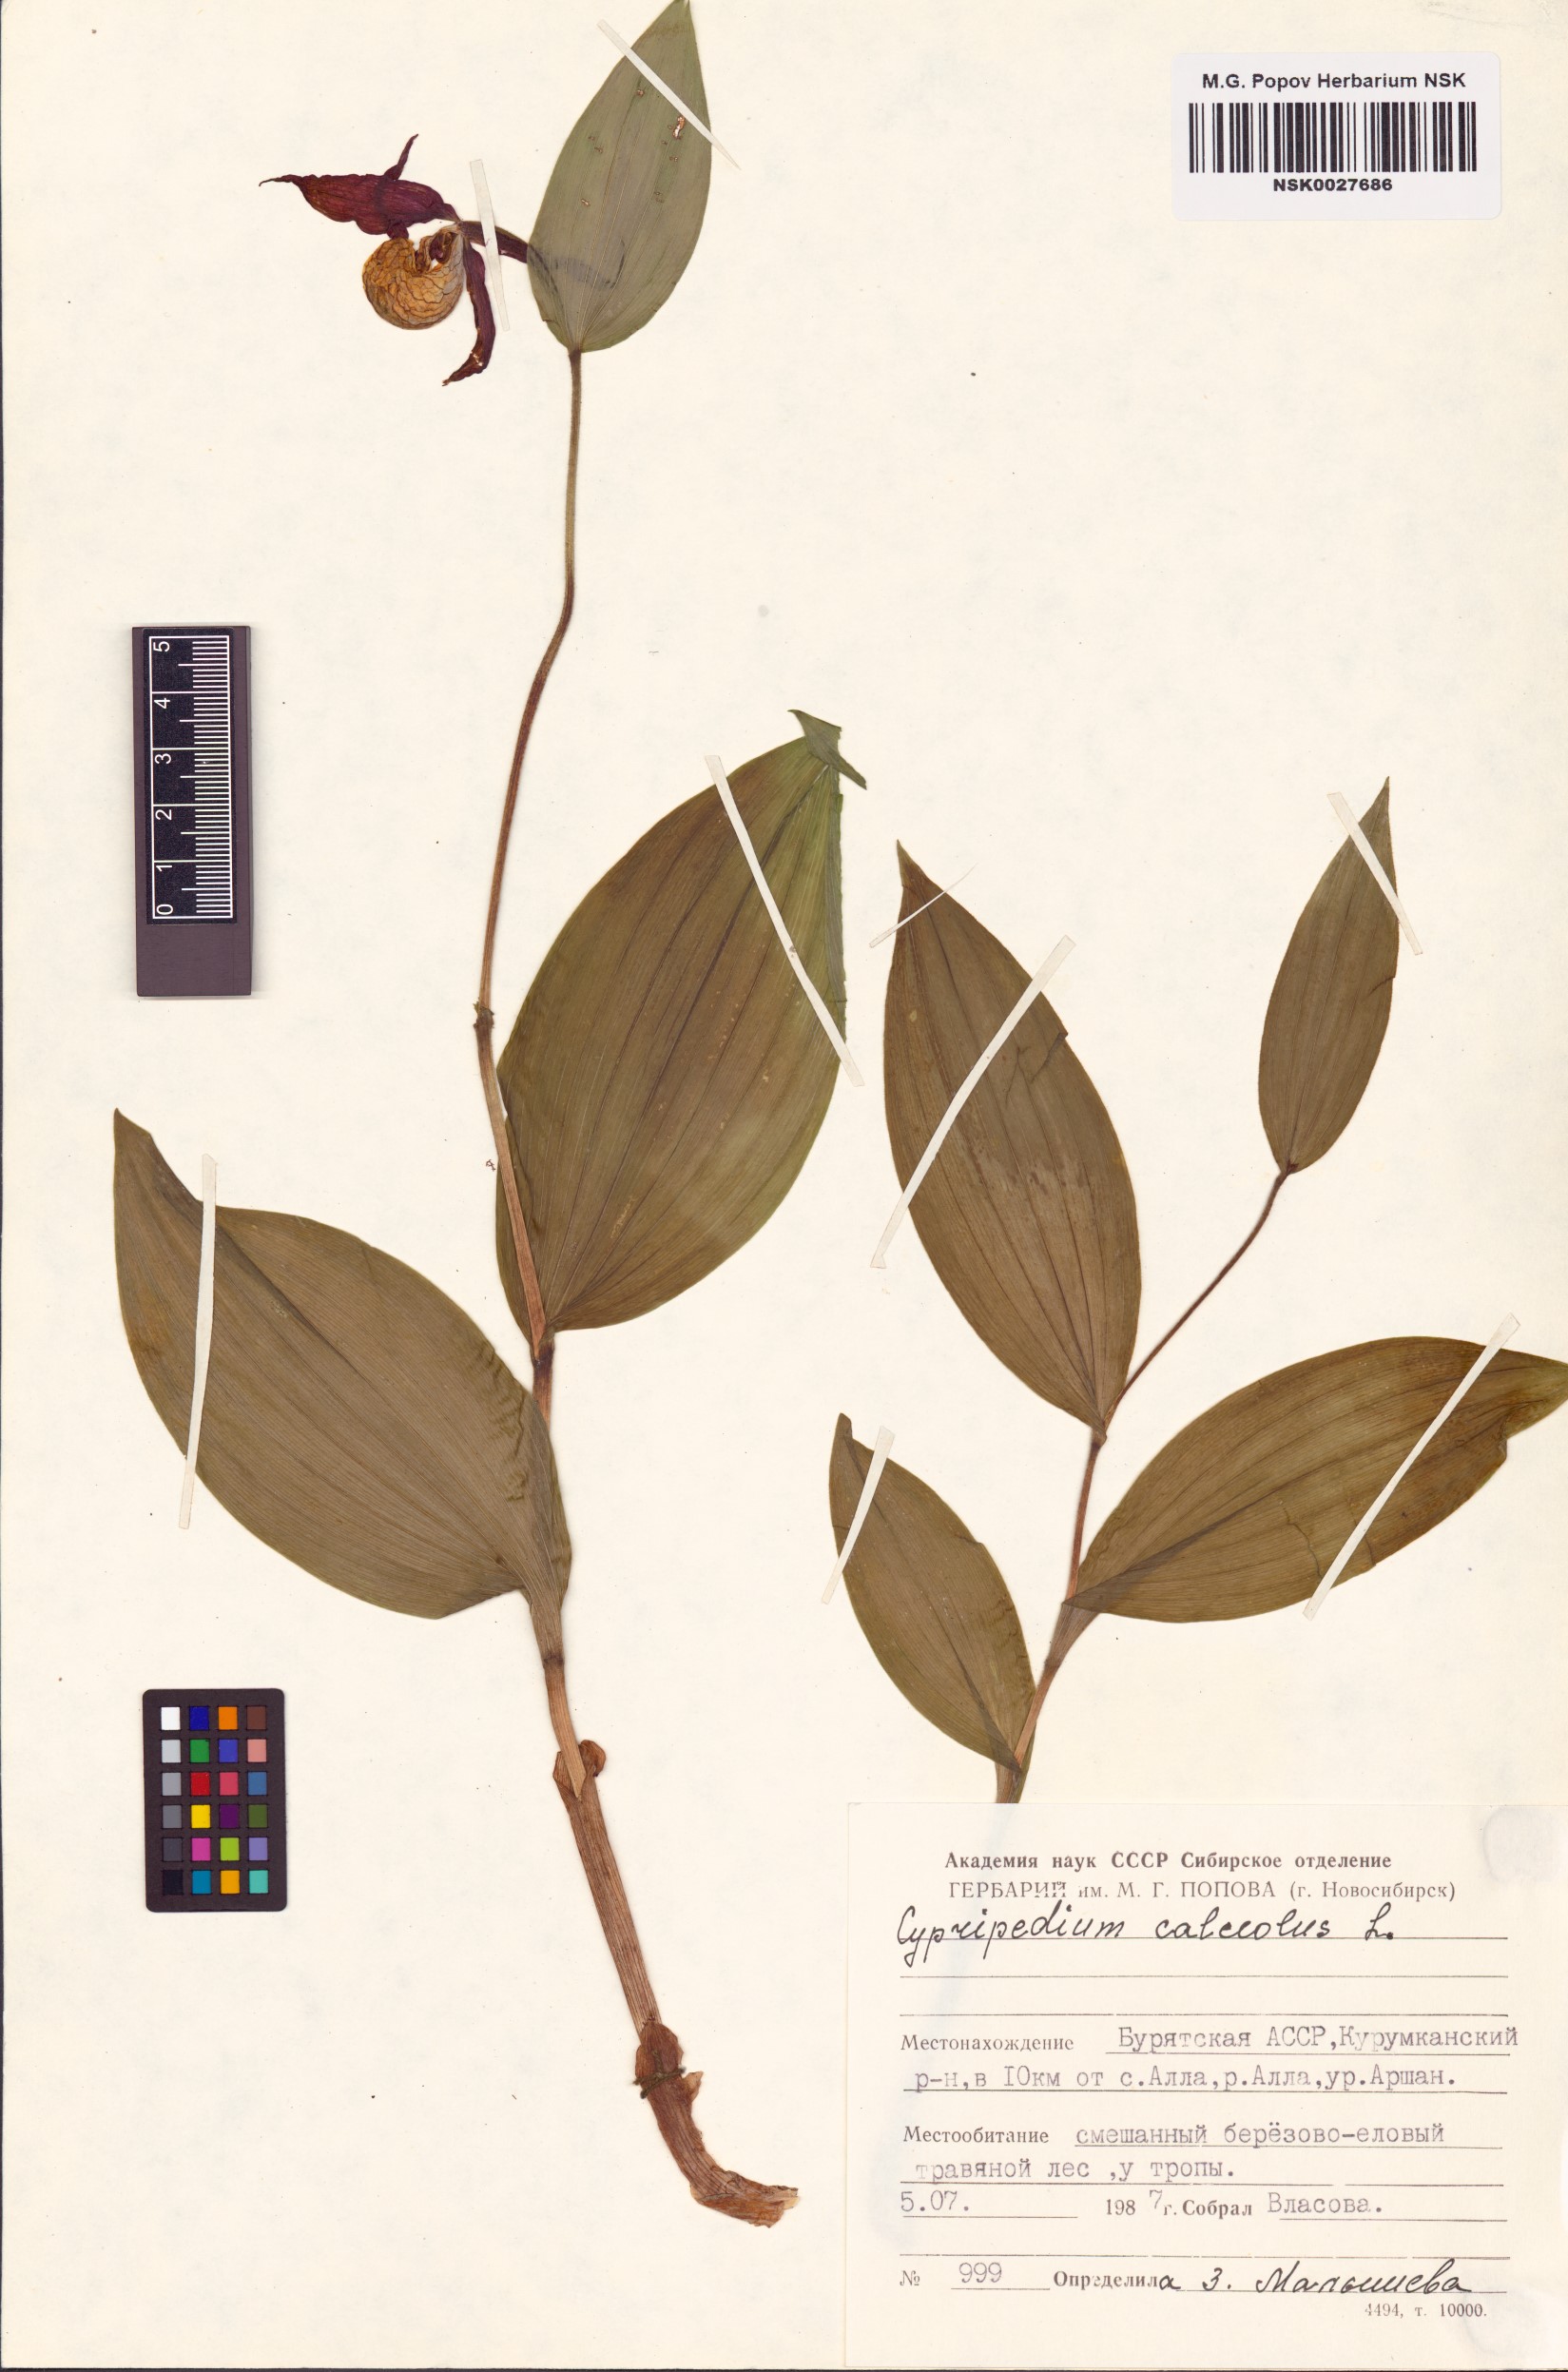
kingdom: Plantae
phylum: Tracheophyta
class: Liliopsida
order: Asparagales
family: Orchidaceae
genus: Cypripedium
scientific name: Cypripedium calceolus
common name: Lady's-slipper
